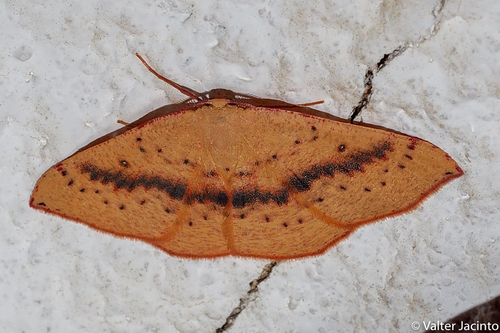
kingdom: Animalia
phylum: Arthropoda
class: Insecta
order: Lepidoptera
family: Geometridae
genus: Cyclophora
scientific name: Cyclophora puppillaria
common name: Blair's mocha
